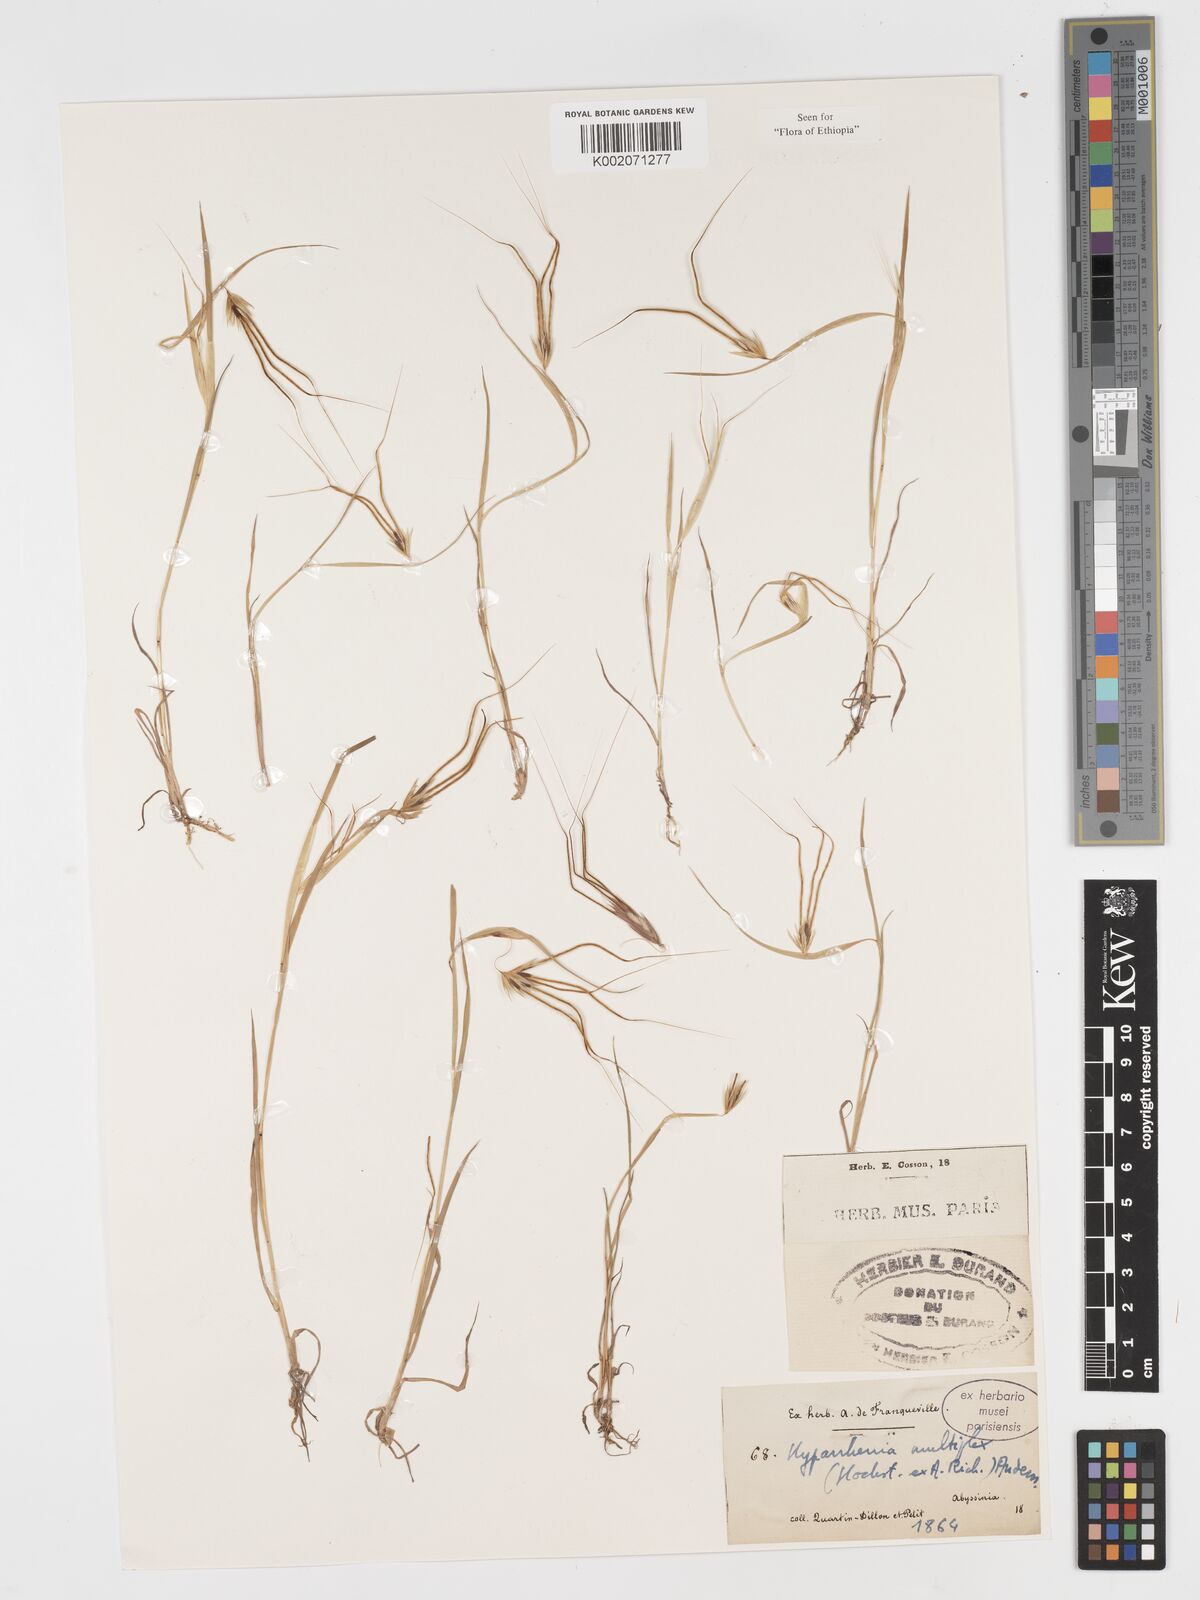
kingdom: Plantae
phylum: Tracheophyta
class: Liliopsida
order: Poales
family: Poaceae
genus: Hyparrhenia
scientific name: Hyparrhenia multiplex
